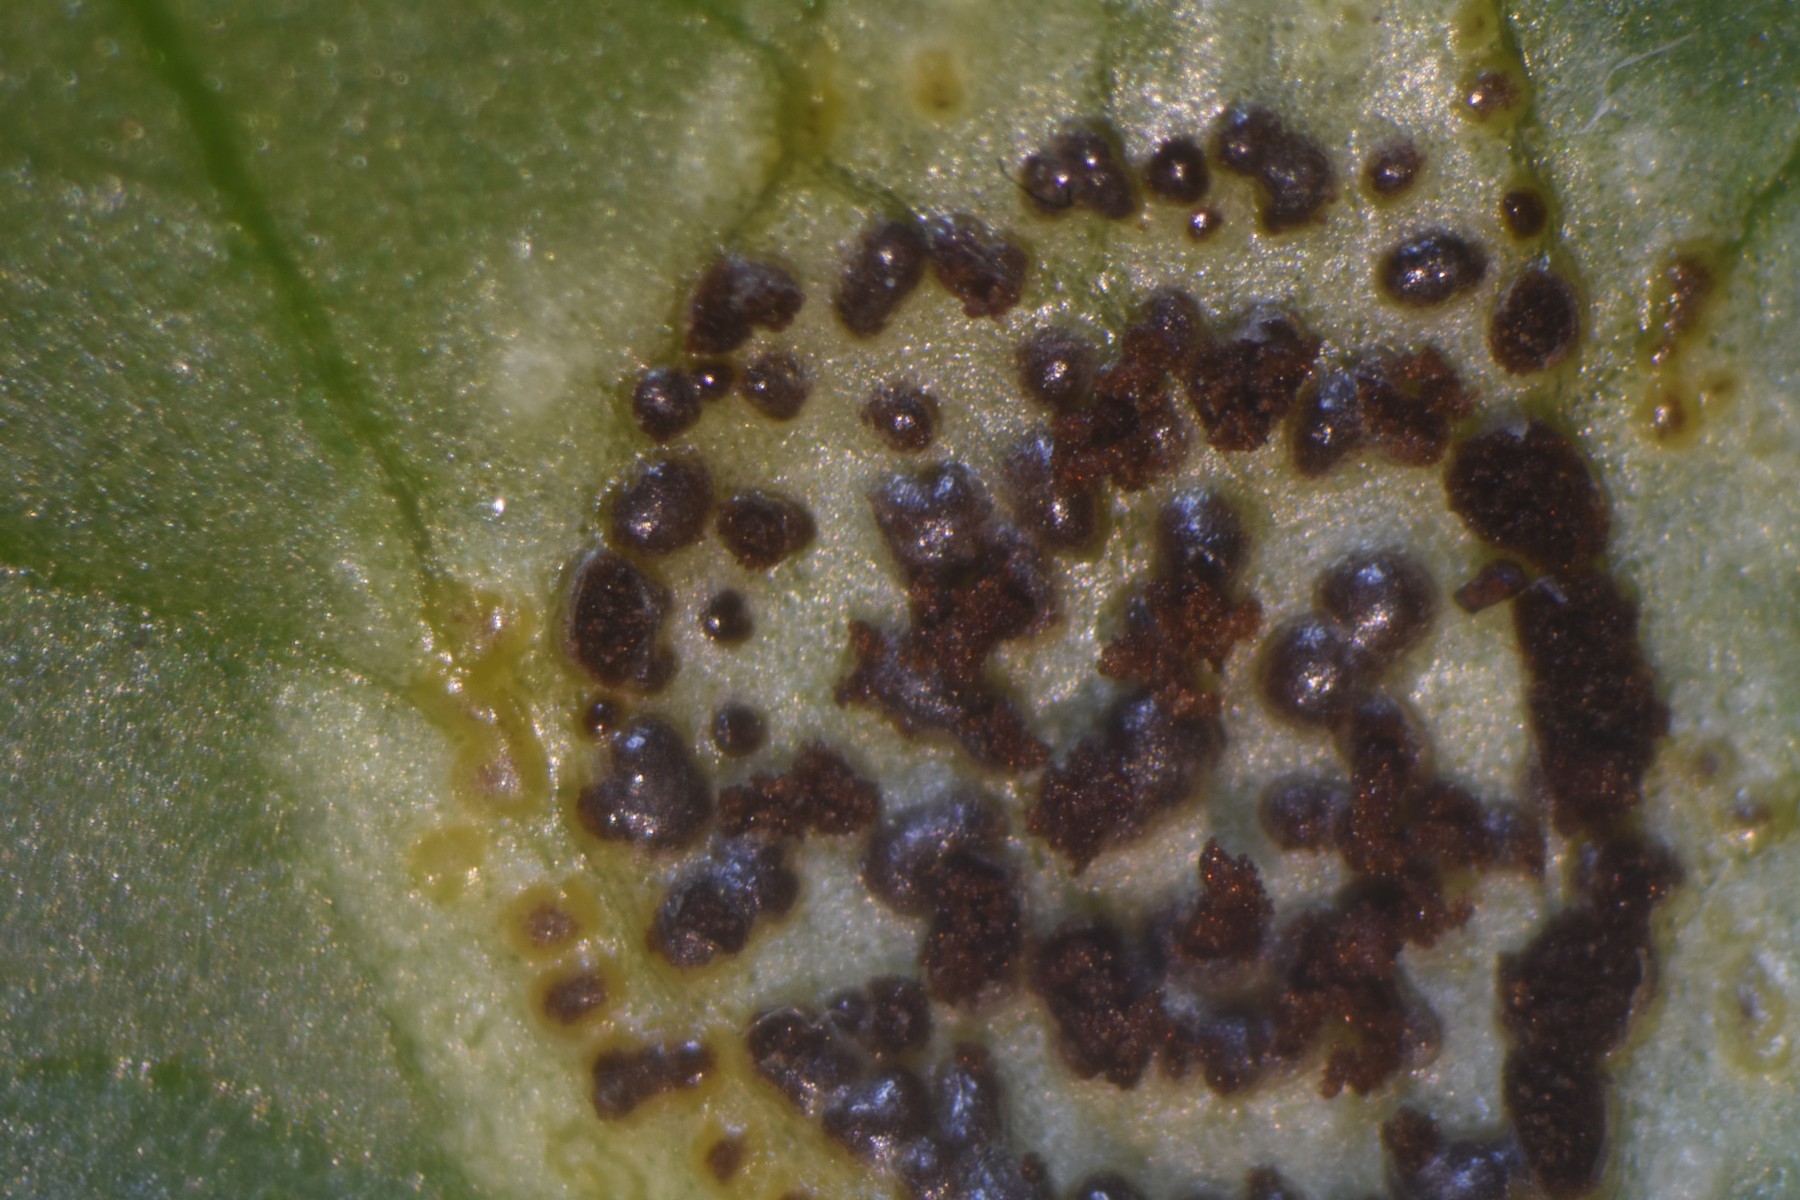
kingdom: Fungi
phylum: Basidiomycota
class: Pucciniomycetes
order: Pucciniales
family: Pucciniaceae
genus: Uromyces
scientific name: Uromyces ficariae
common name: vorterod-encellerust
